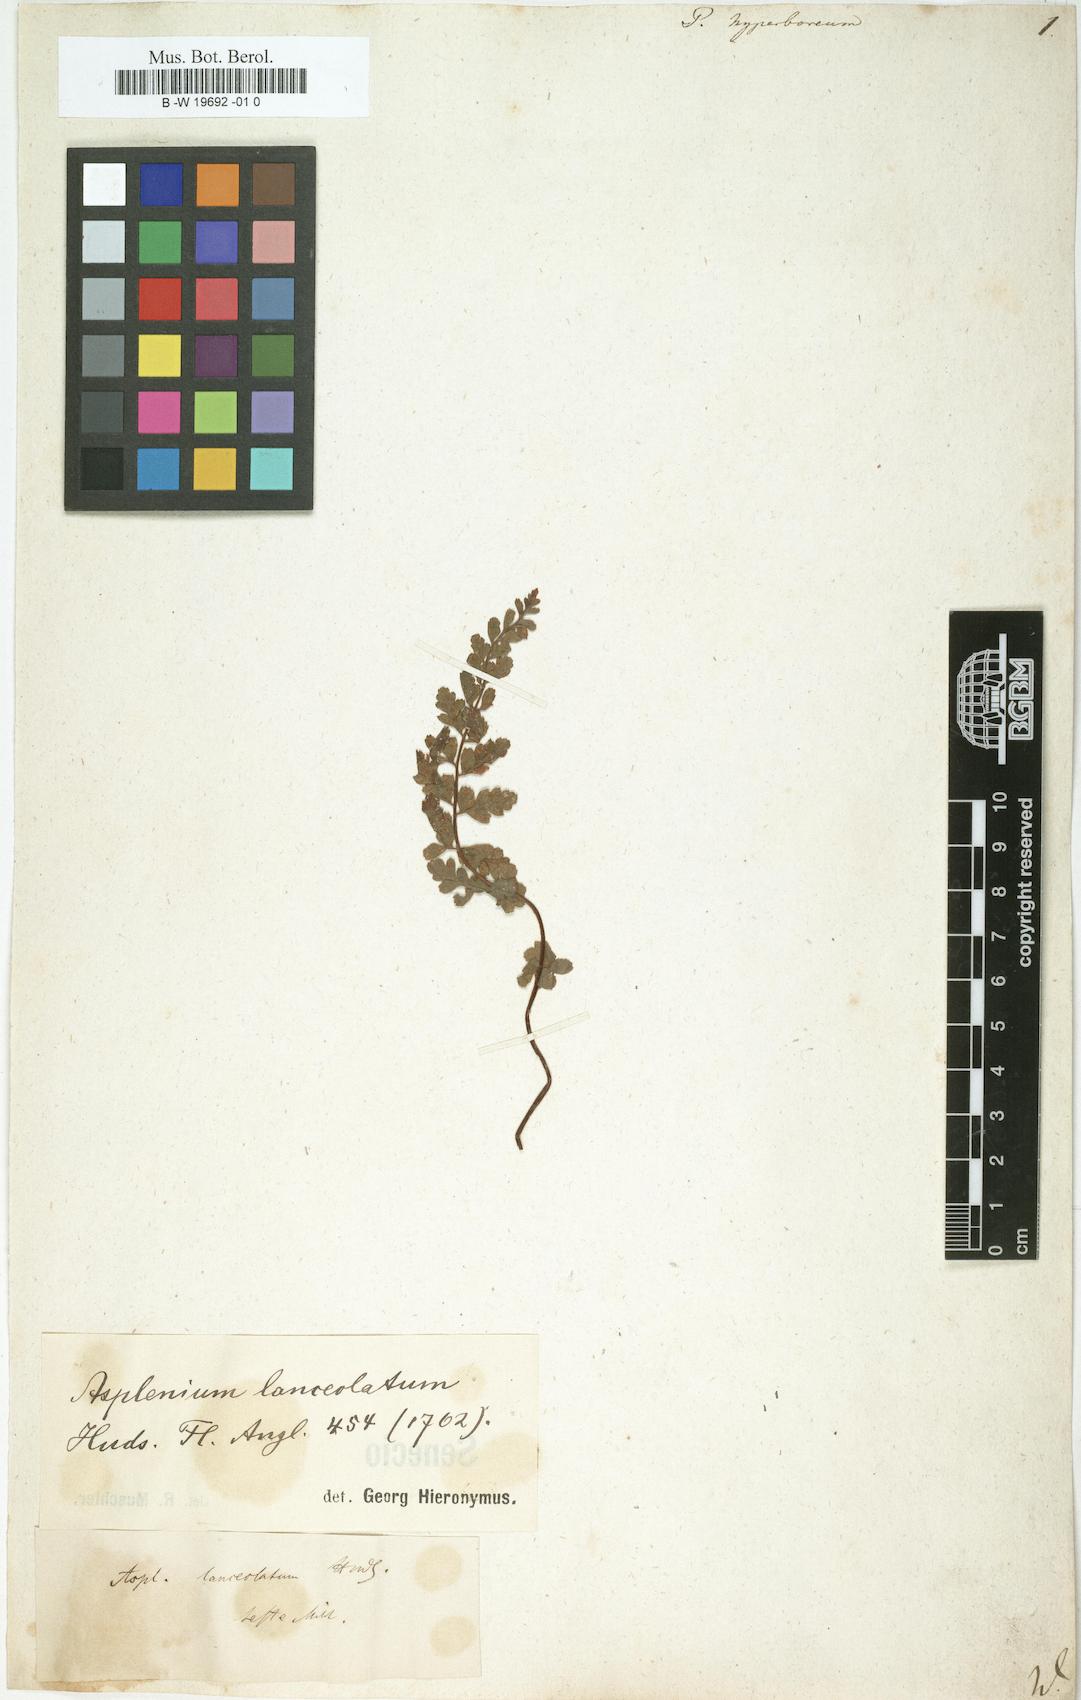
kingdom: Plantae
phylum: Tracheophyta
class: Polypodiopsida
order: Polypodiales
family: Woodsiaceae
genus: Woodsia
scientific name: Woodsia alpina
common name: Alpine woodsia
